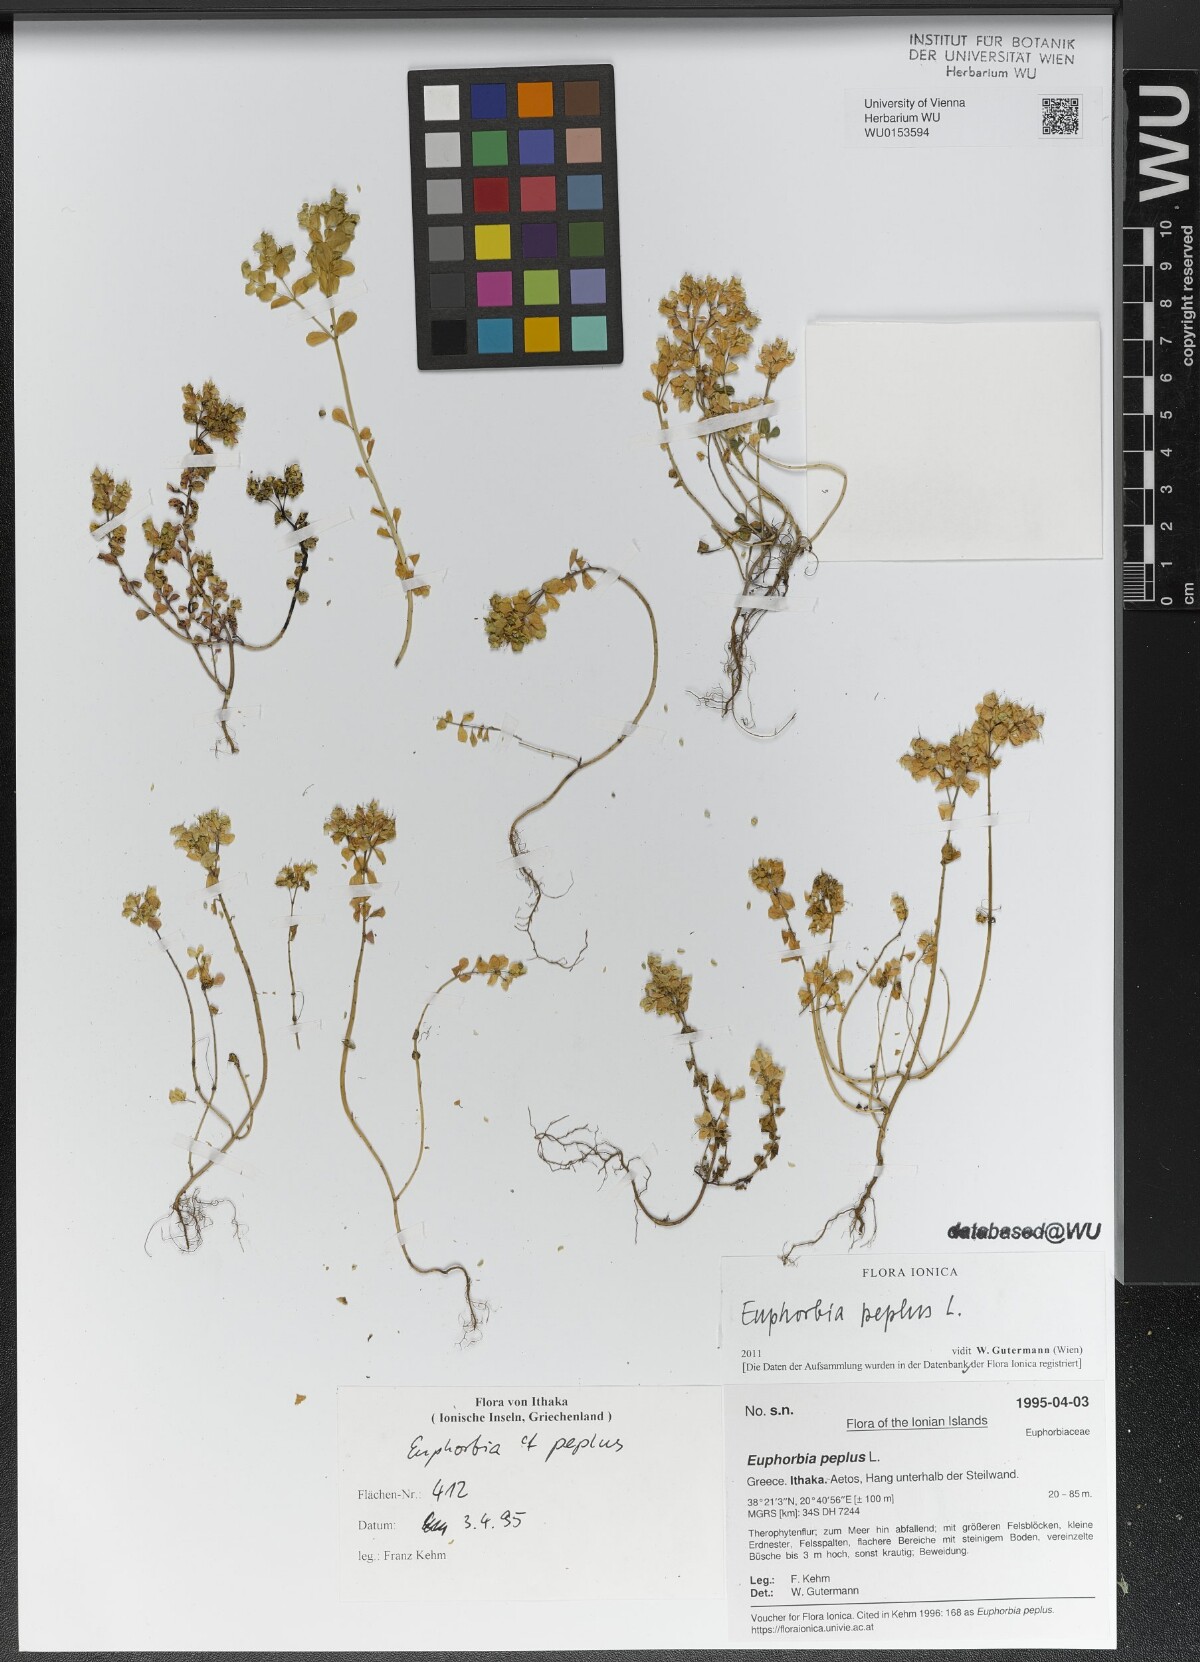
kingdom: Plantae
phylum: Tracheophyta
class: Magnoliopsida
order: Malpighiales
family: Euphorbiaceae
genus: Euphorbia
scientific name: Euphorbia peplus
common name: Petty spurge
